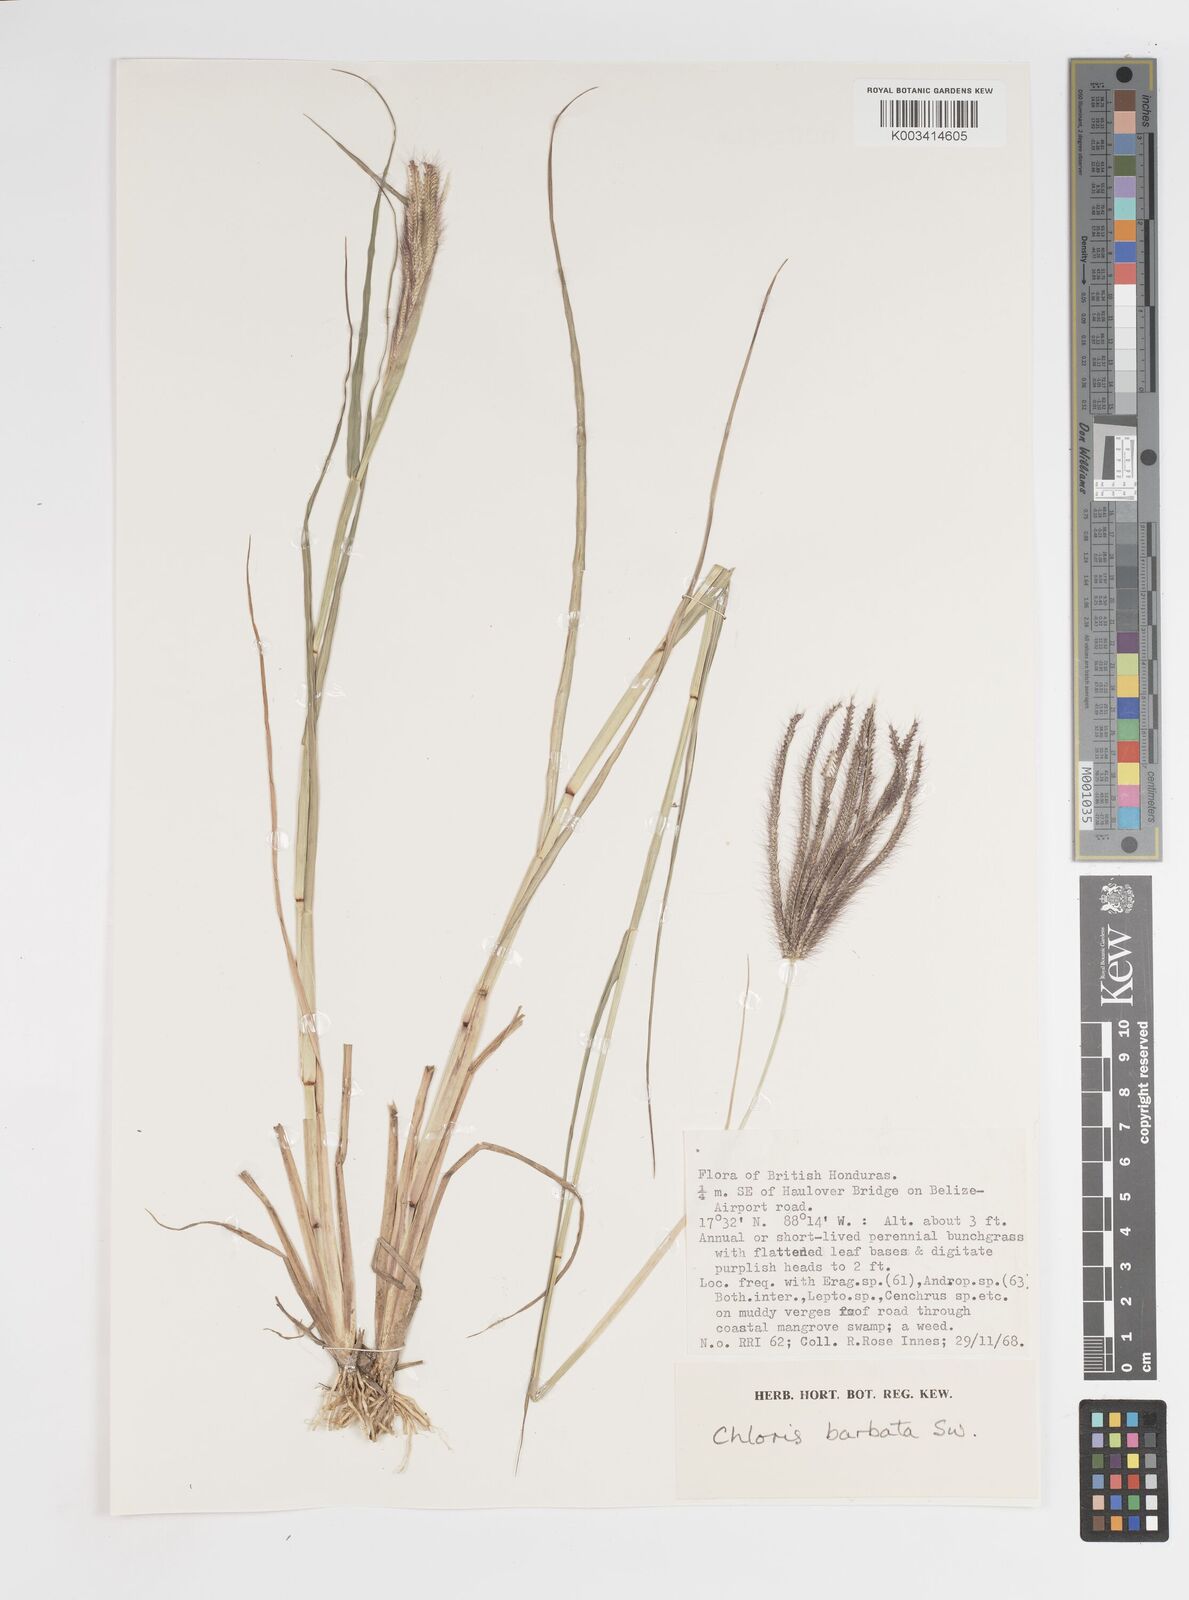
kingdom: Plantae
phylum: Tracheophyta
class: Liliopsida
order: Poales
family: Poaceae
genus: Stapfochloa
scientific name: Stapfochloa elata
